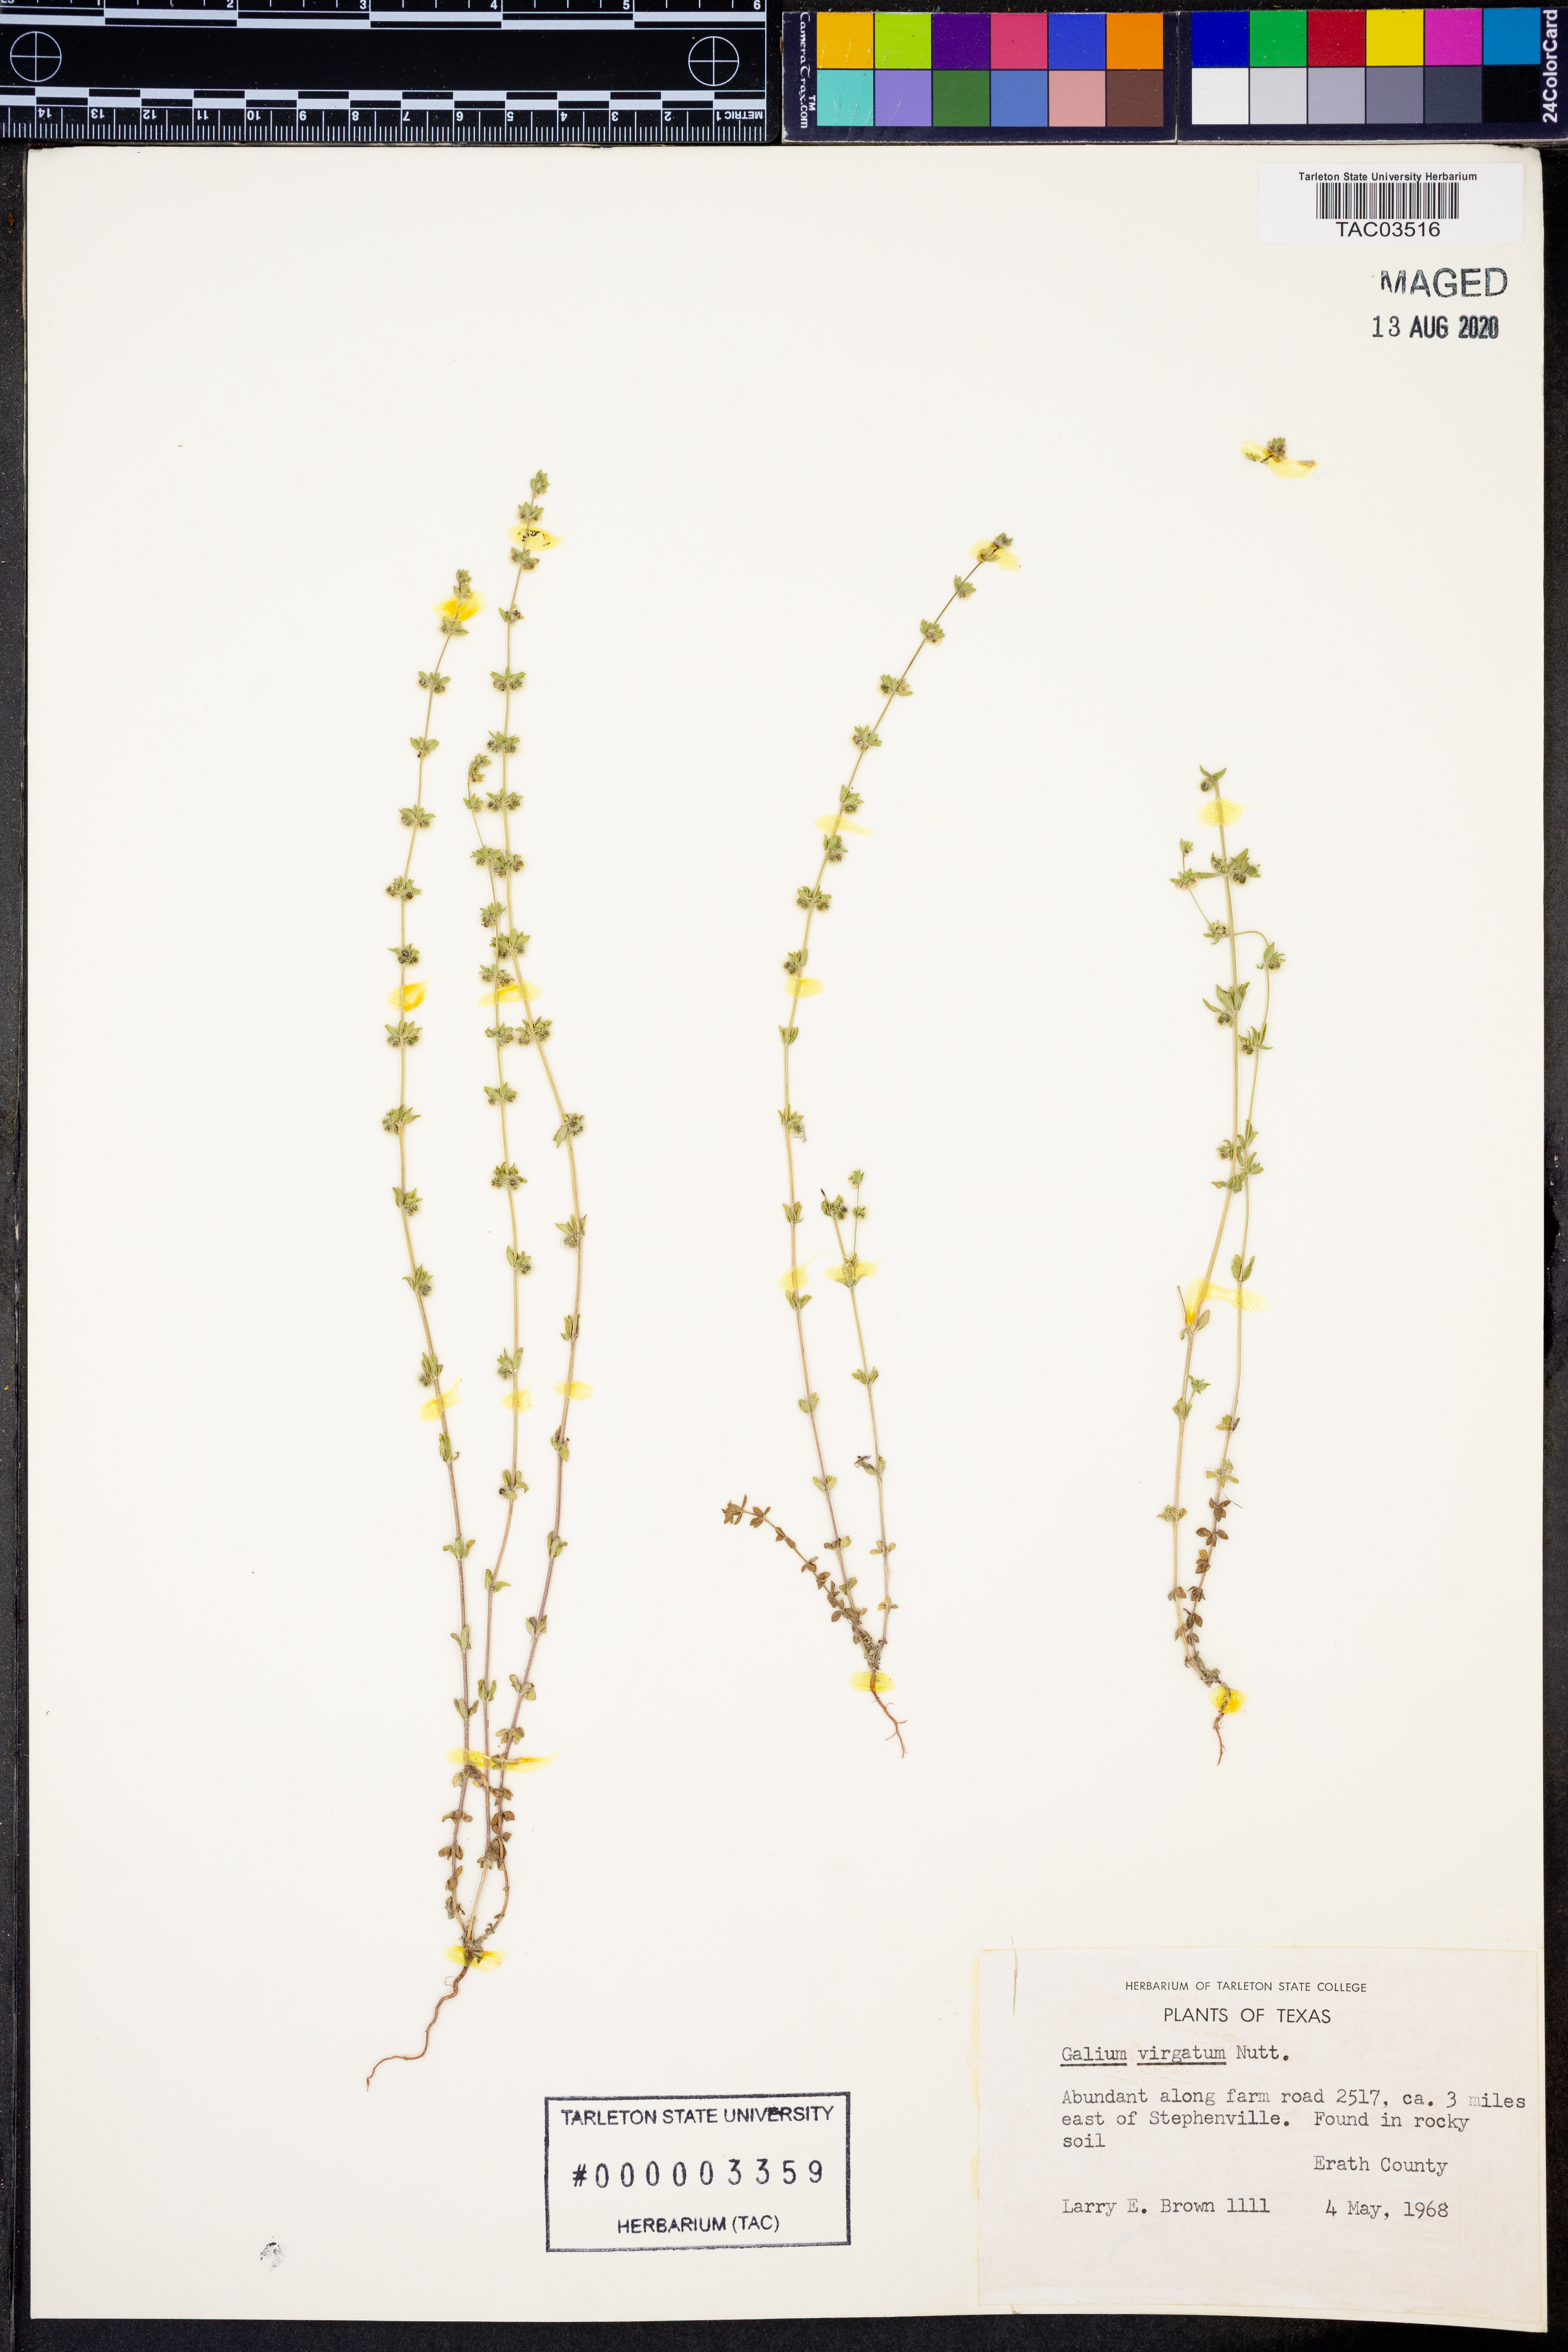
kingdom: Plantae
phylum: Tracheophyta
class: Magnoliopsida
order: Gentianales
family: Rubiaceae
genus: Galium
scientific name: Galium virgatum
